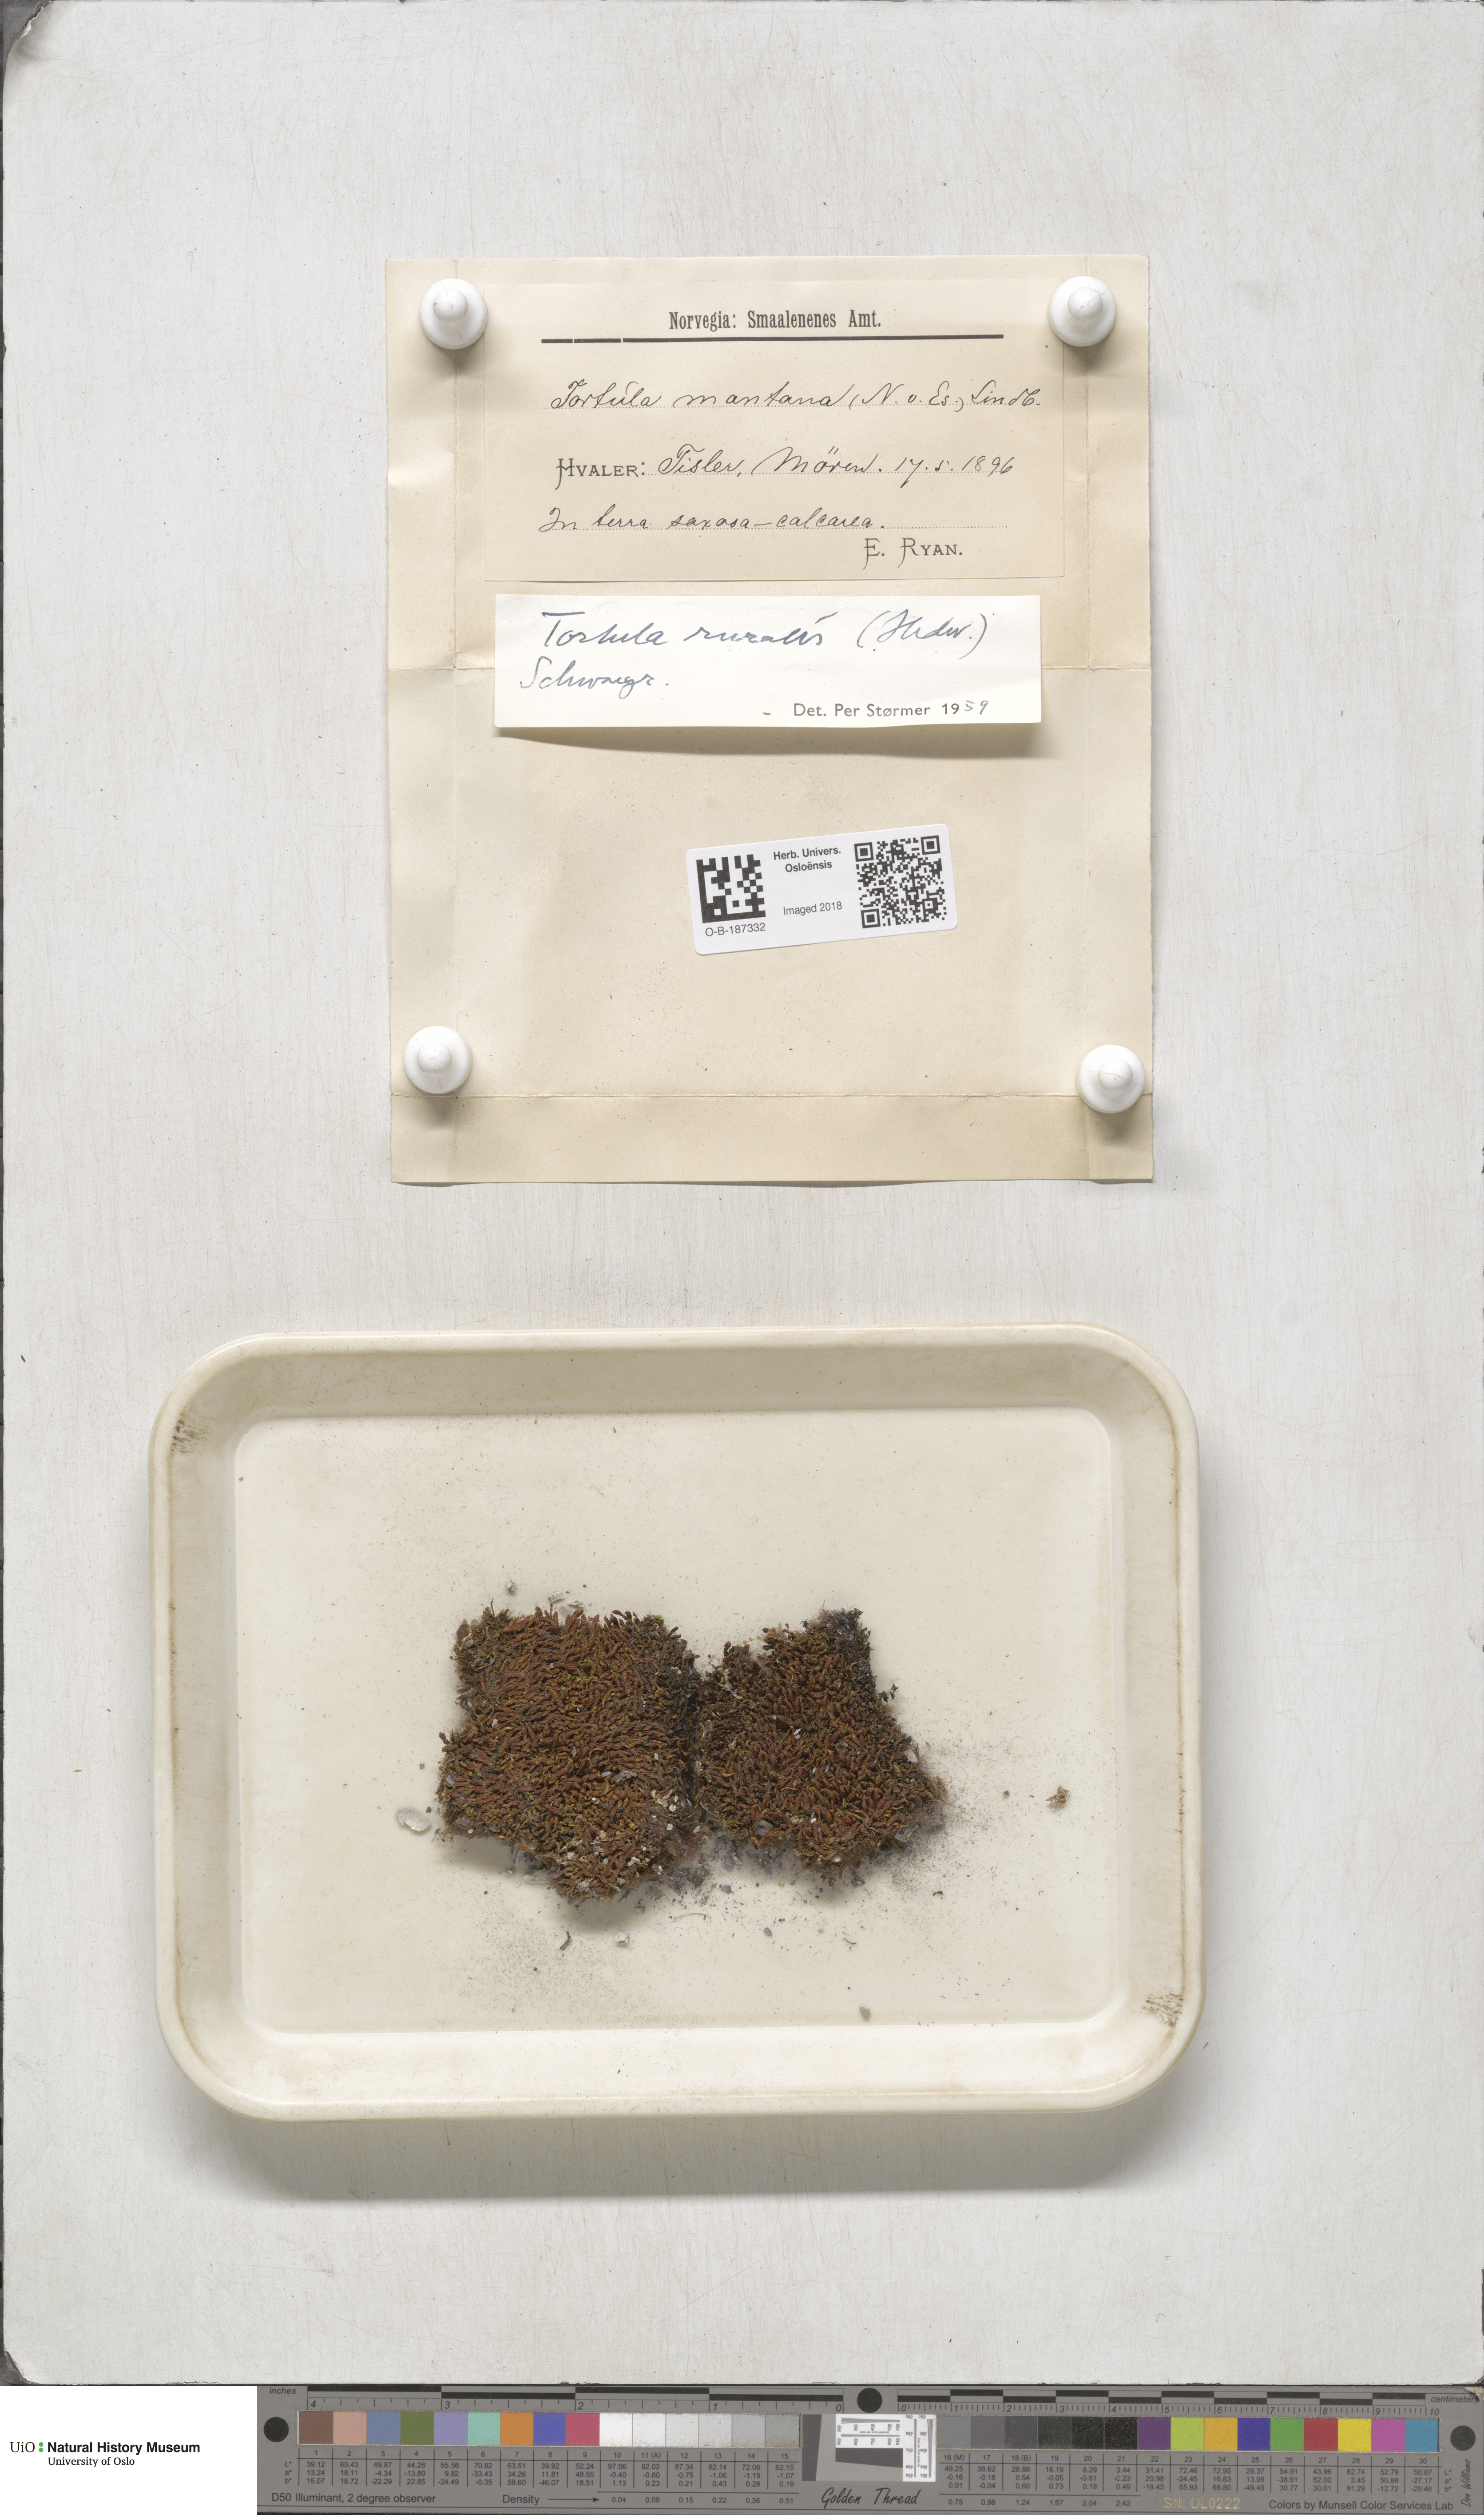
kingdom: Plantae
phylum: Bryophyta
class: Bryopsida
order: Pottiales
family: Pottiaceae
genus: Syntrichia
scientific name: Syntrichia ruralis
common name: Sidewalk screw moss
